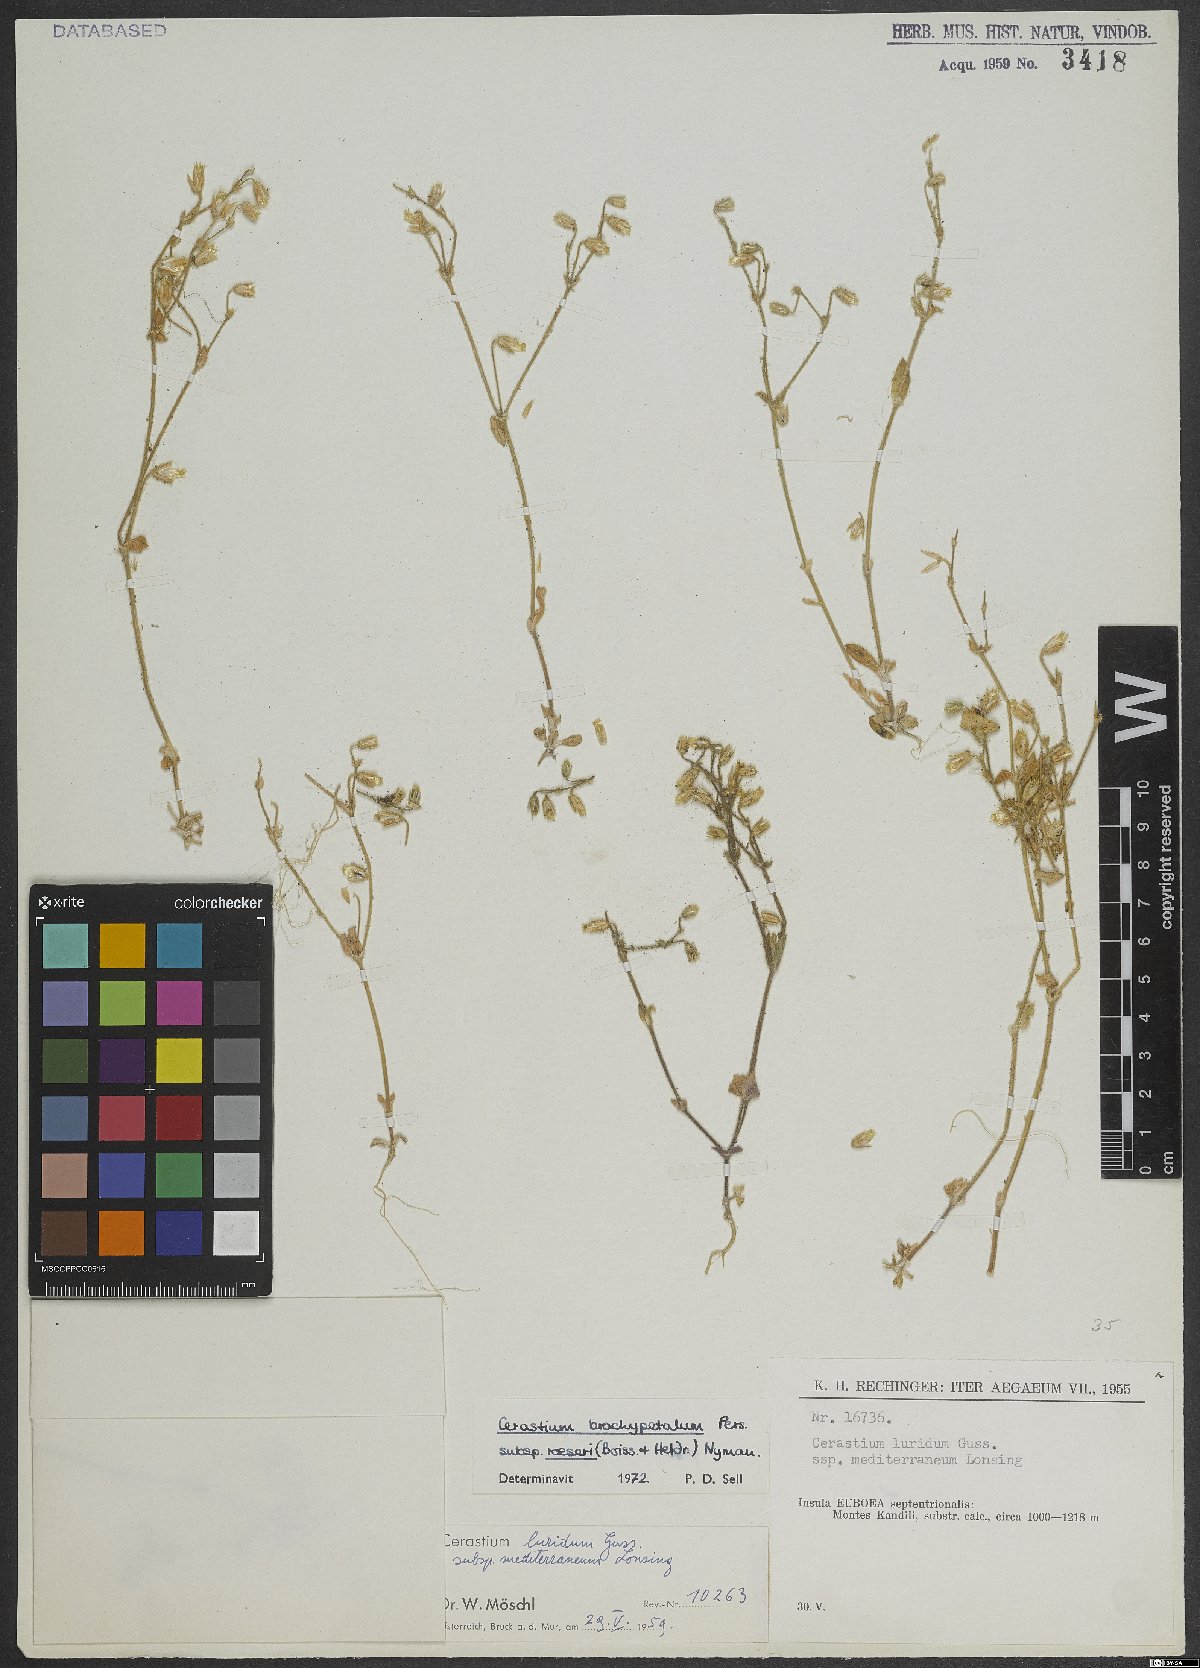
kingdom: Plantae
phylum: Tracheophyta
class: Magnoliopsida
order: Caryophyllales
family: Caryophyllaceae
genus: Cerastium
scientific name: Cerastium brachypetalum
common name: Grey mouse-ear
